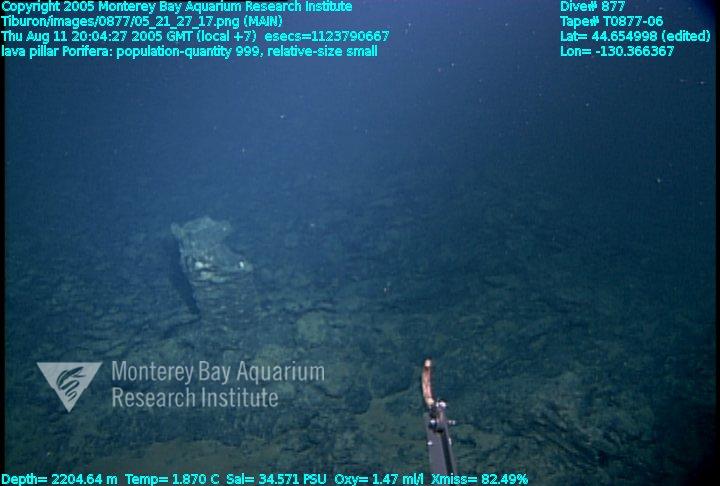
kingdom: Animalia
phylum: Porifera
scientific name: Porifera
